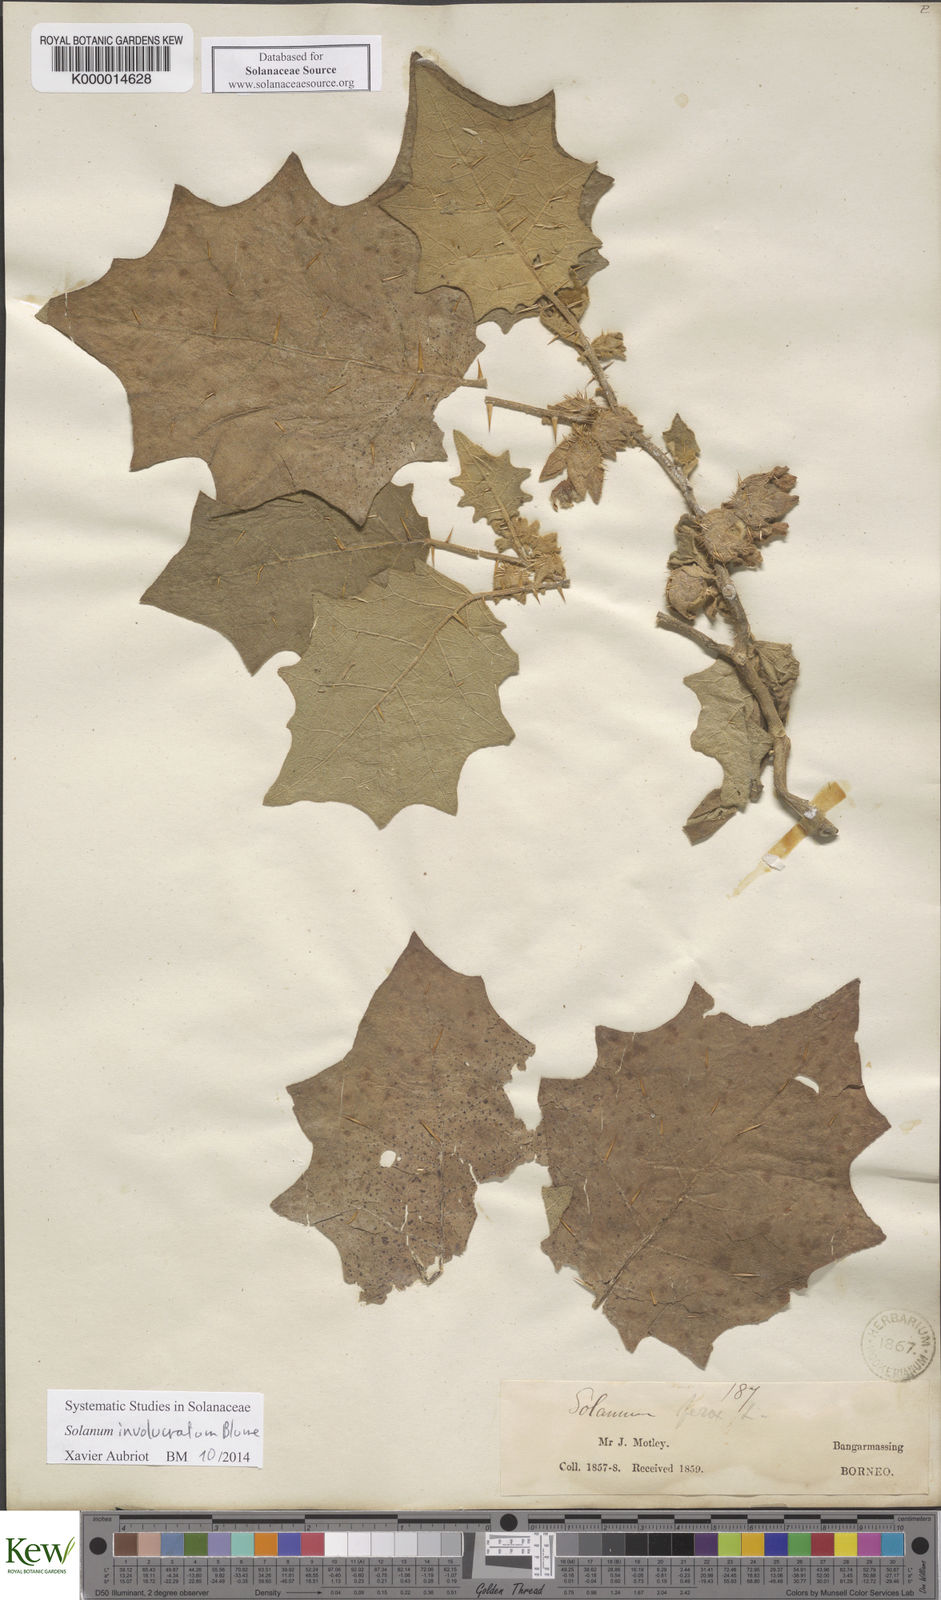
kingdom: Plantae
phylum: Tracheophyta
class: Magnoliopsida
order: Solanales
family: Solanaceae
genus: Solanum
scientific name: Solanum involucratum
